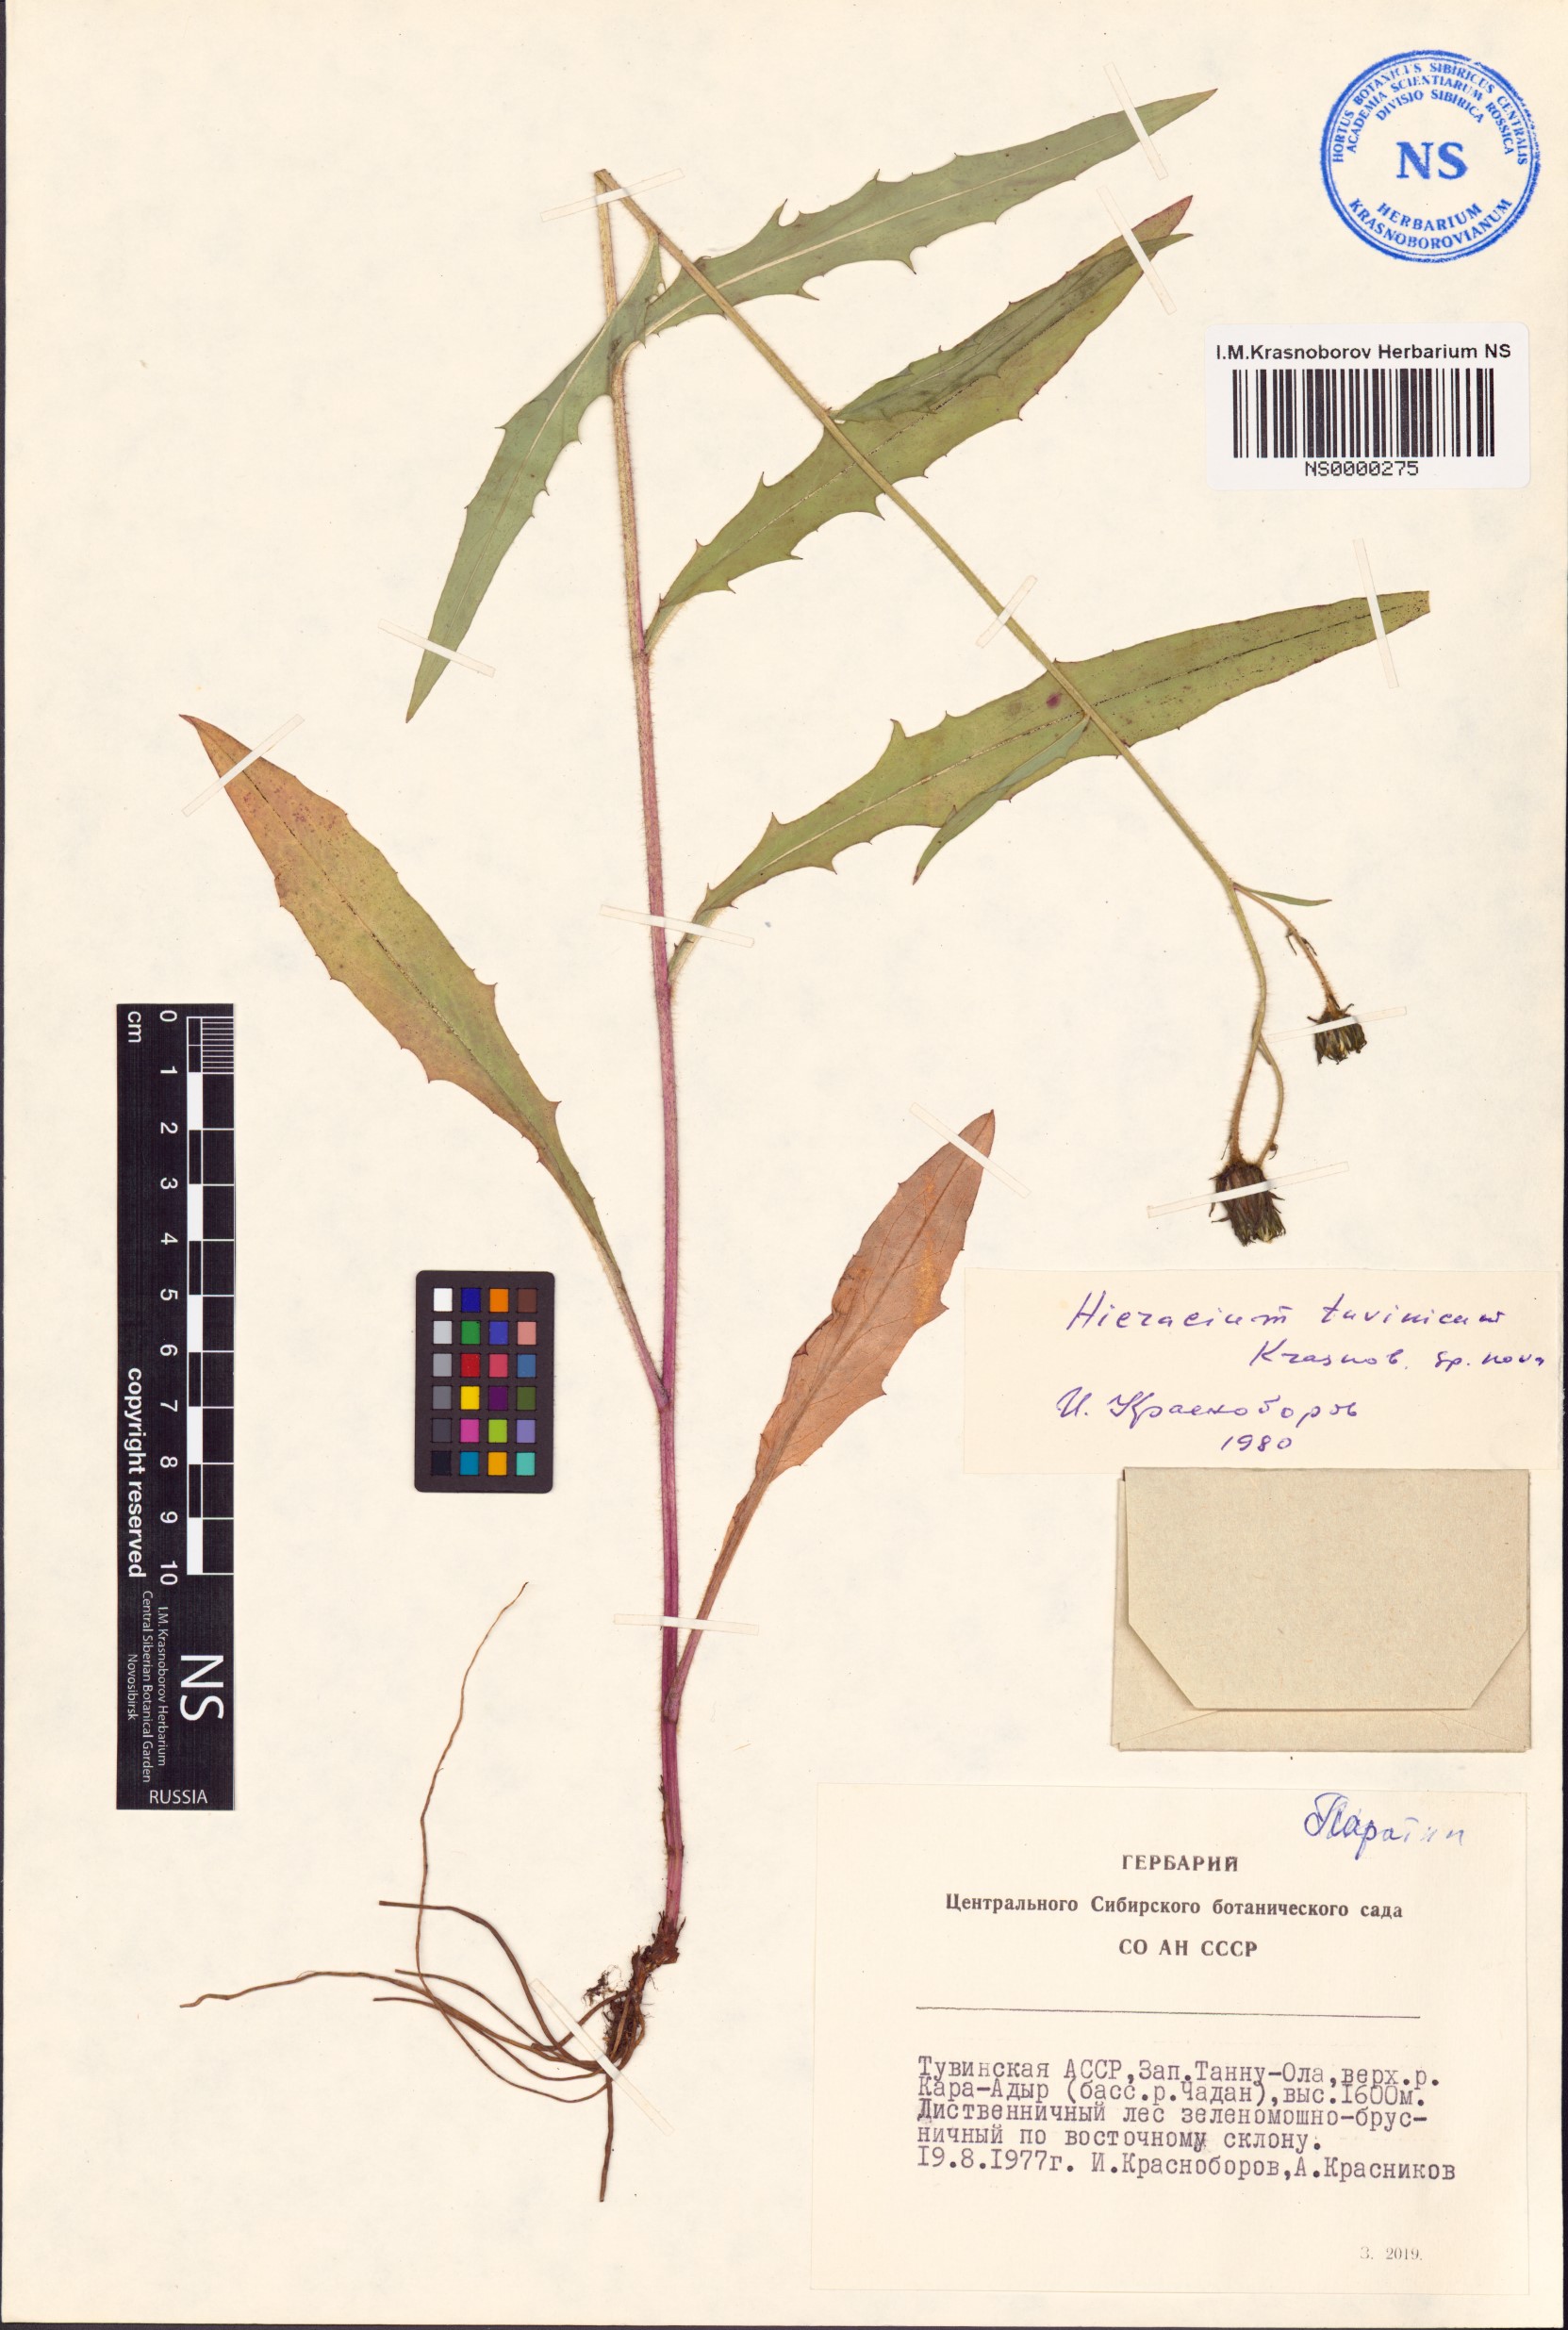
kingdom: Plantae
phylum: Tracheophyta
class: Magnoliopsida
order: Asterales
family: Asteraceae
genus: Hieracium
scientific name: Hieracium tuvinicum
